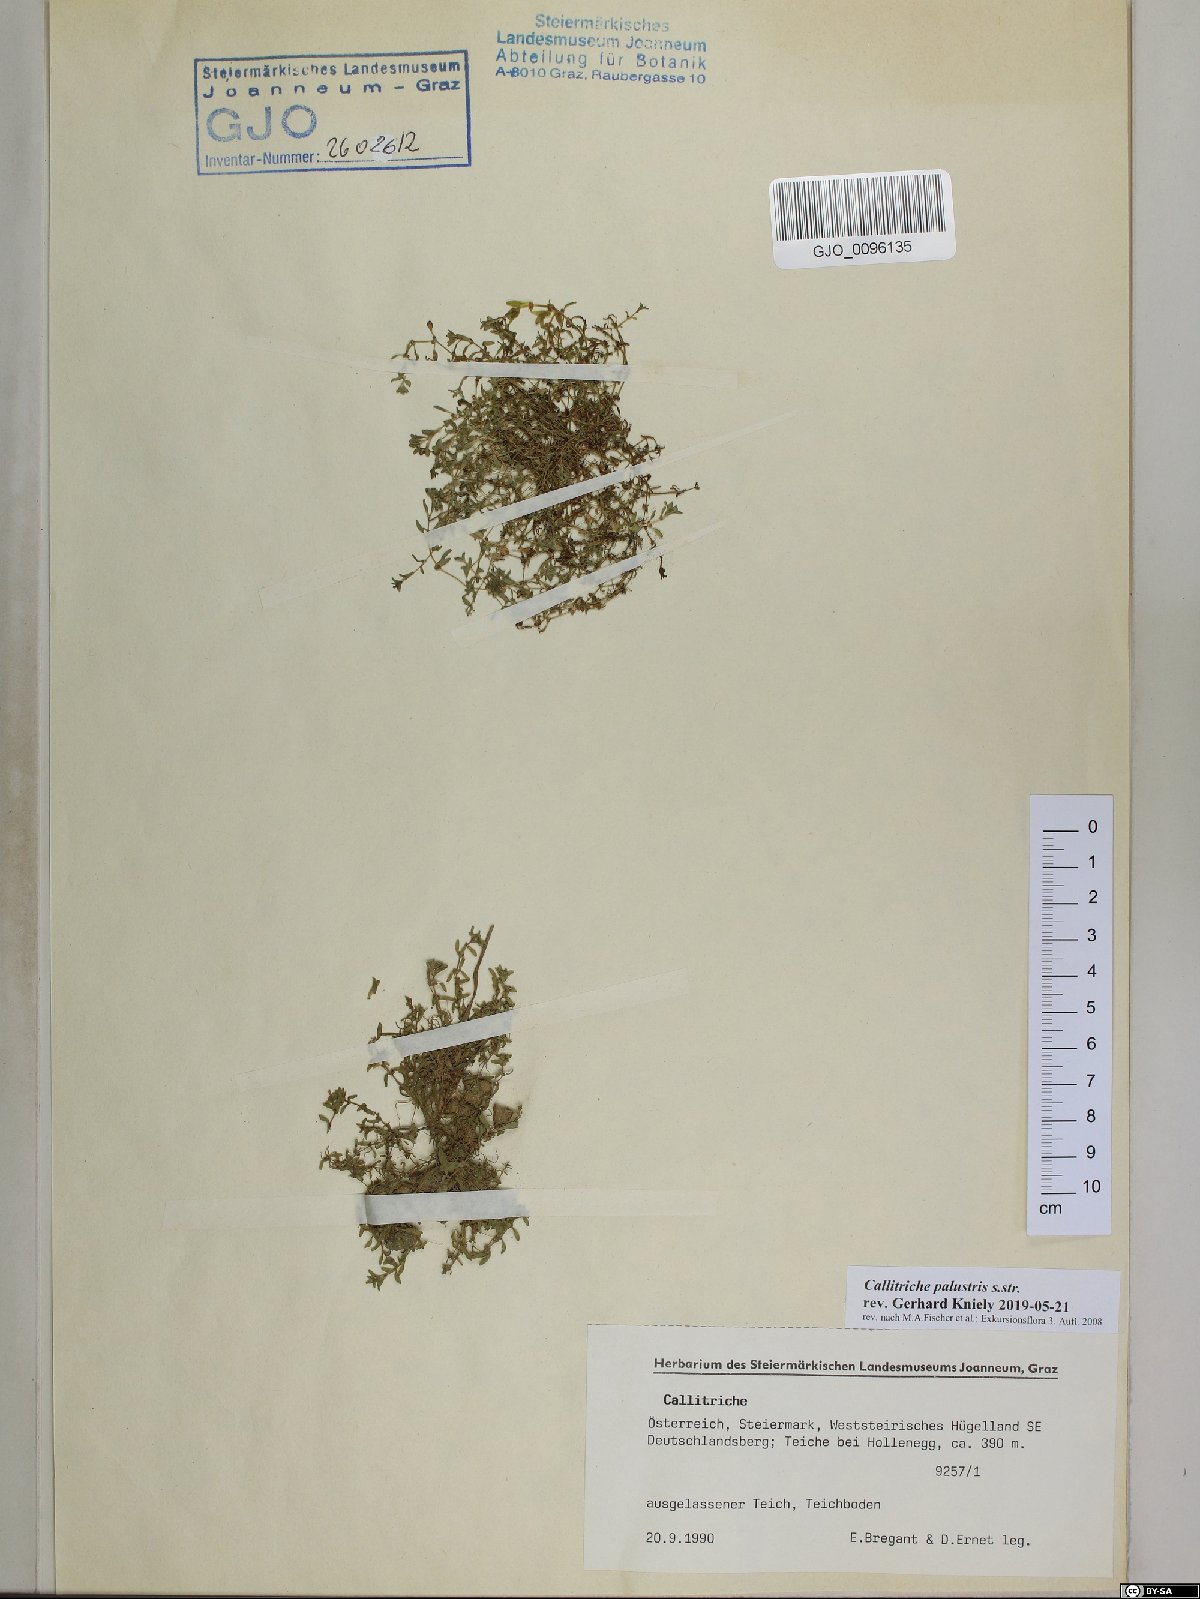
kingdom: Plantae
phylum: Tracheophyta
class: Magnoliopsida
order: Lamiales
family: Plantaginaceae
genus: Callitriche
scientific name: Callitriche palustris
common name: Spring water-starwort
